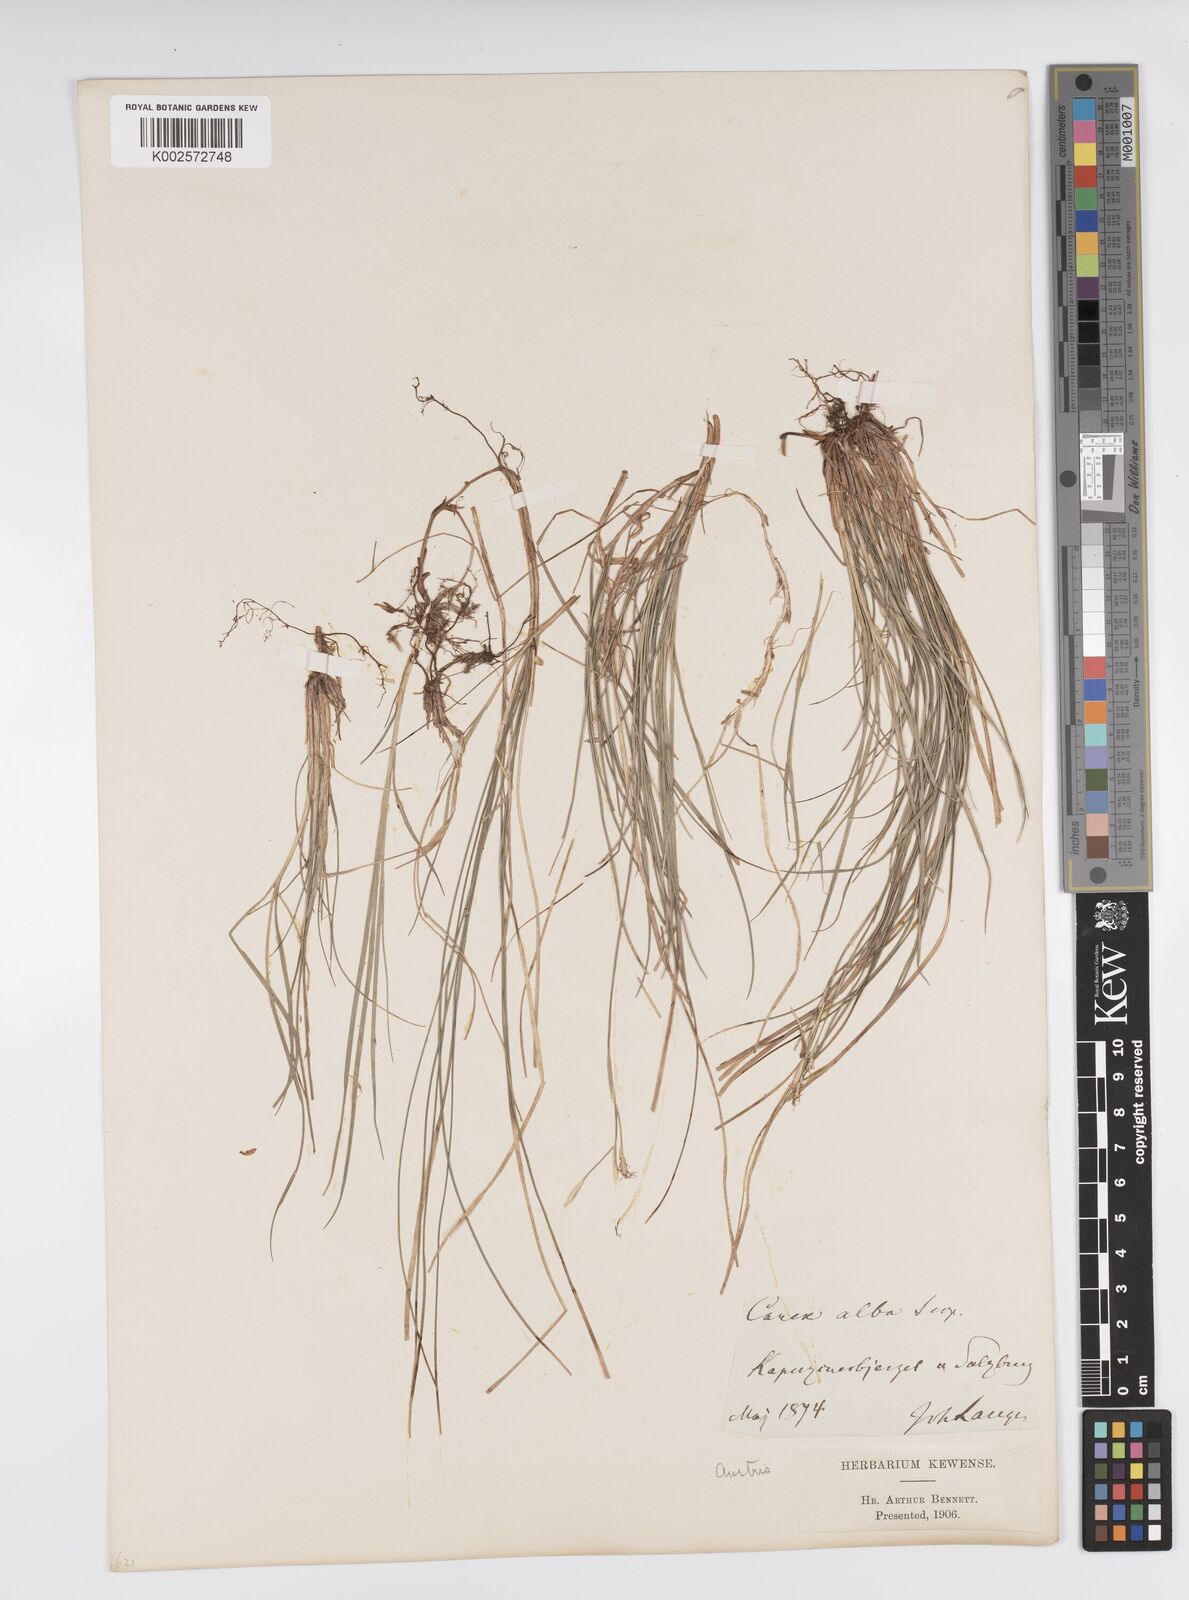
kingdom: Plantae
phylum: Tracheophyta
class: Liliopsida
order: Poales
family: Cyperaceae
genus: Carex
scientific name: Carex alba
